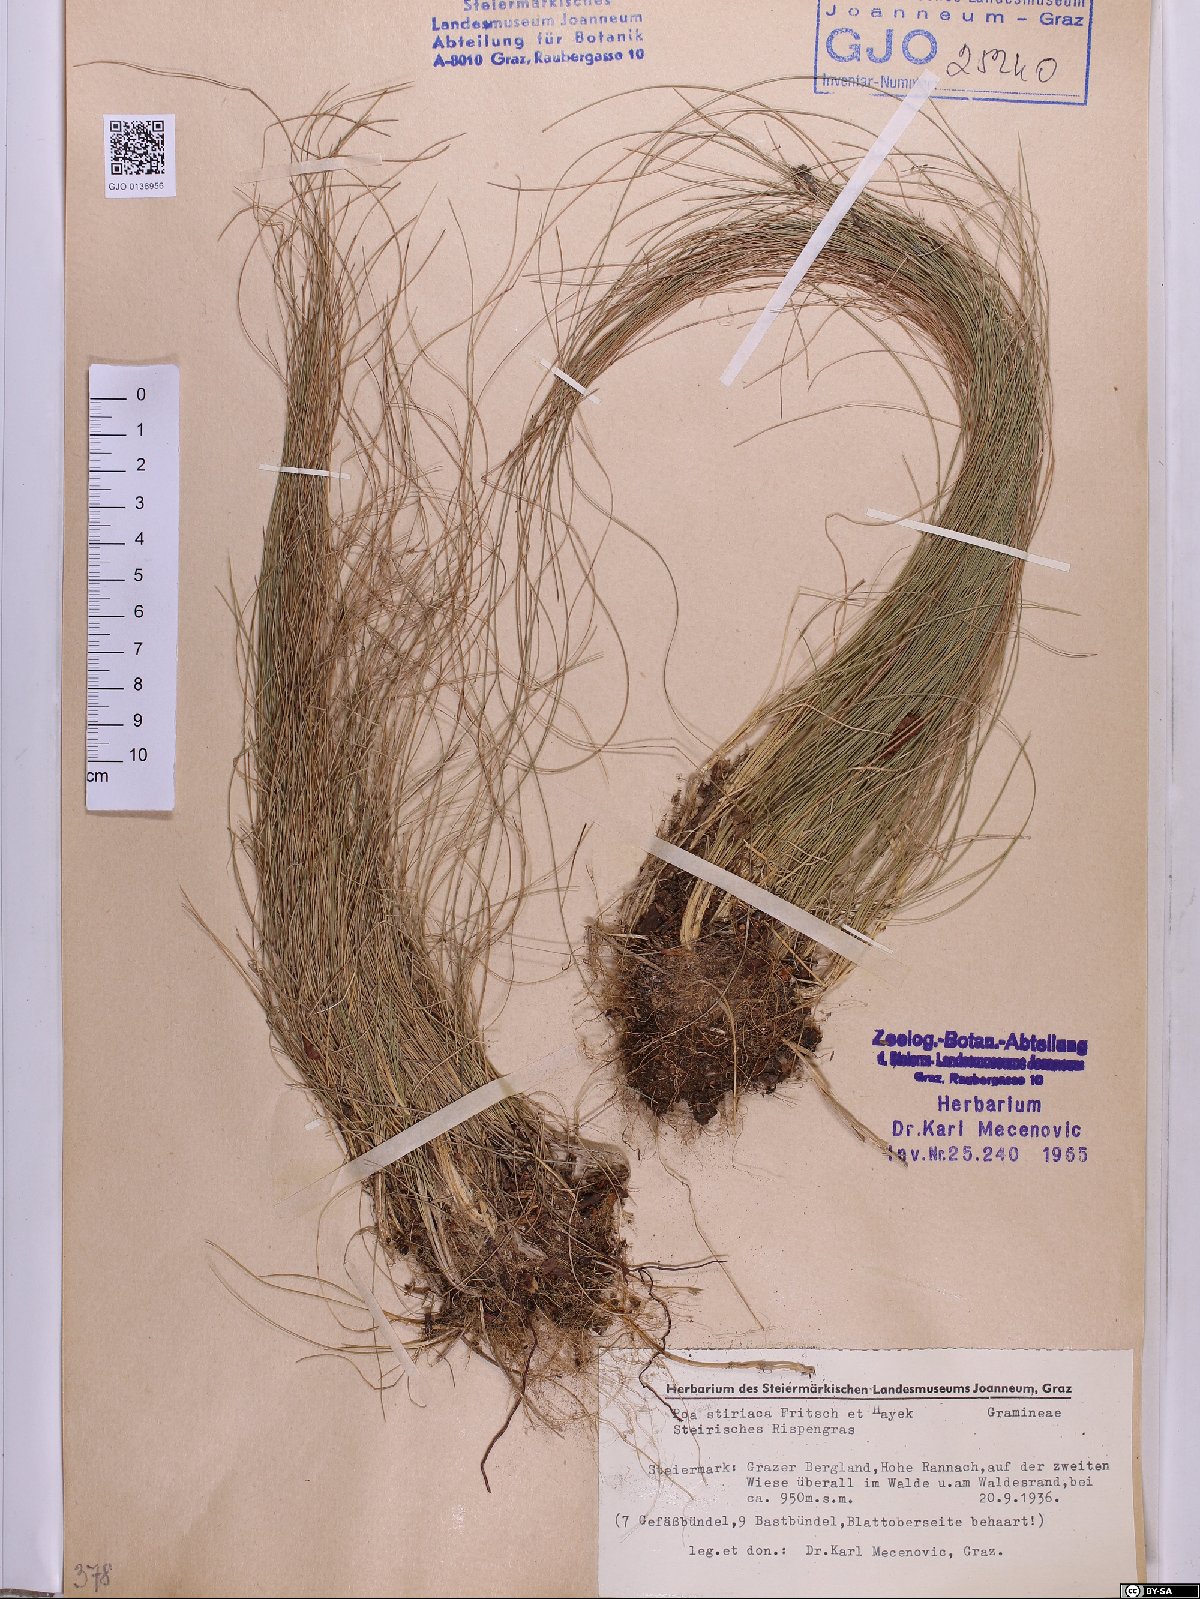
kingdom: Plantae
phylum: Tracheophyta
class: Liliopsida
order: Poales
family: Poaceae
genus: Poa
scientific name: Poa stiriaca
